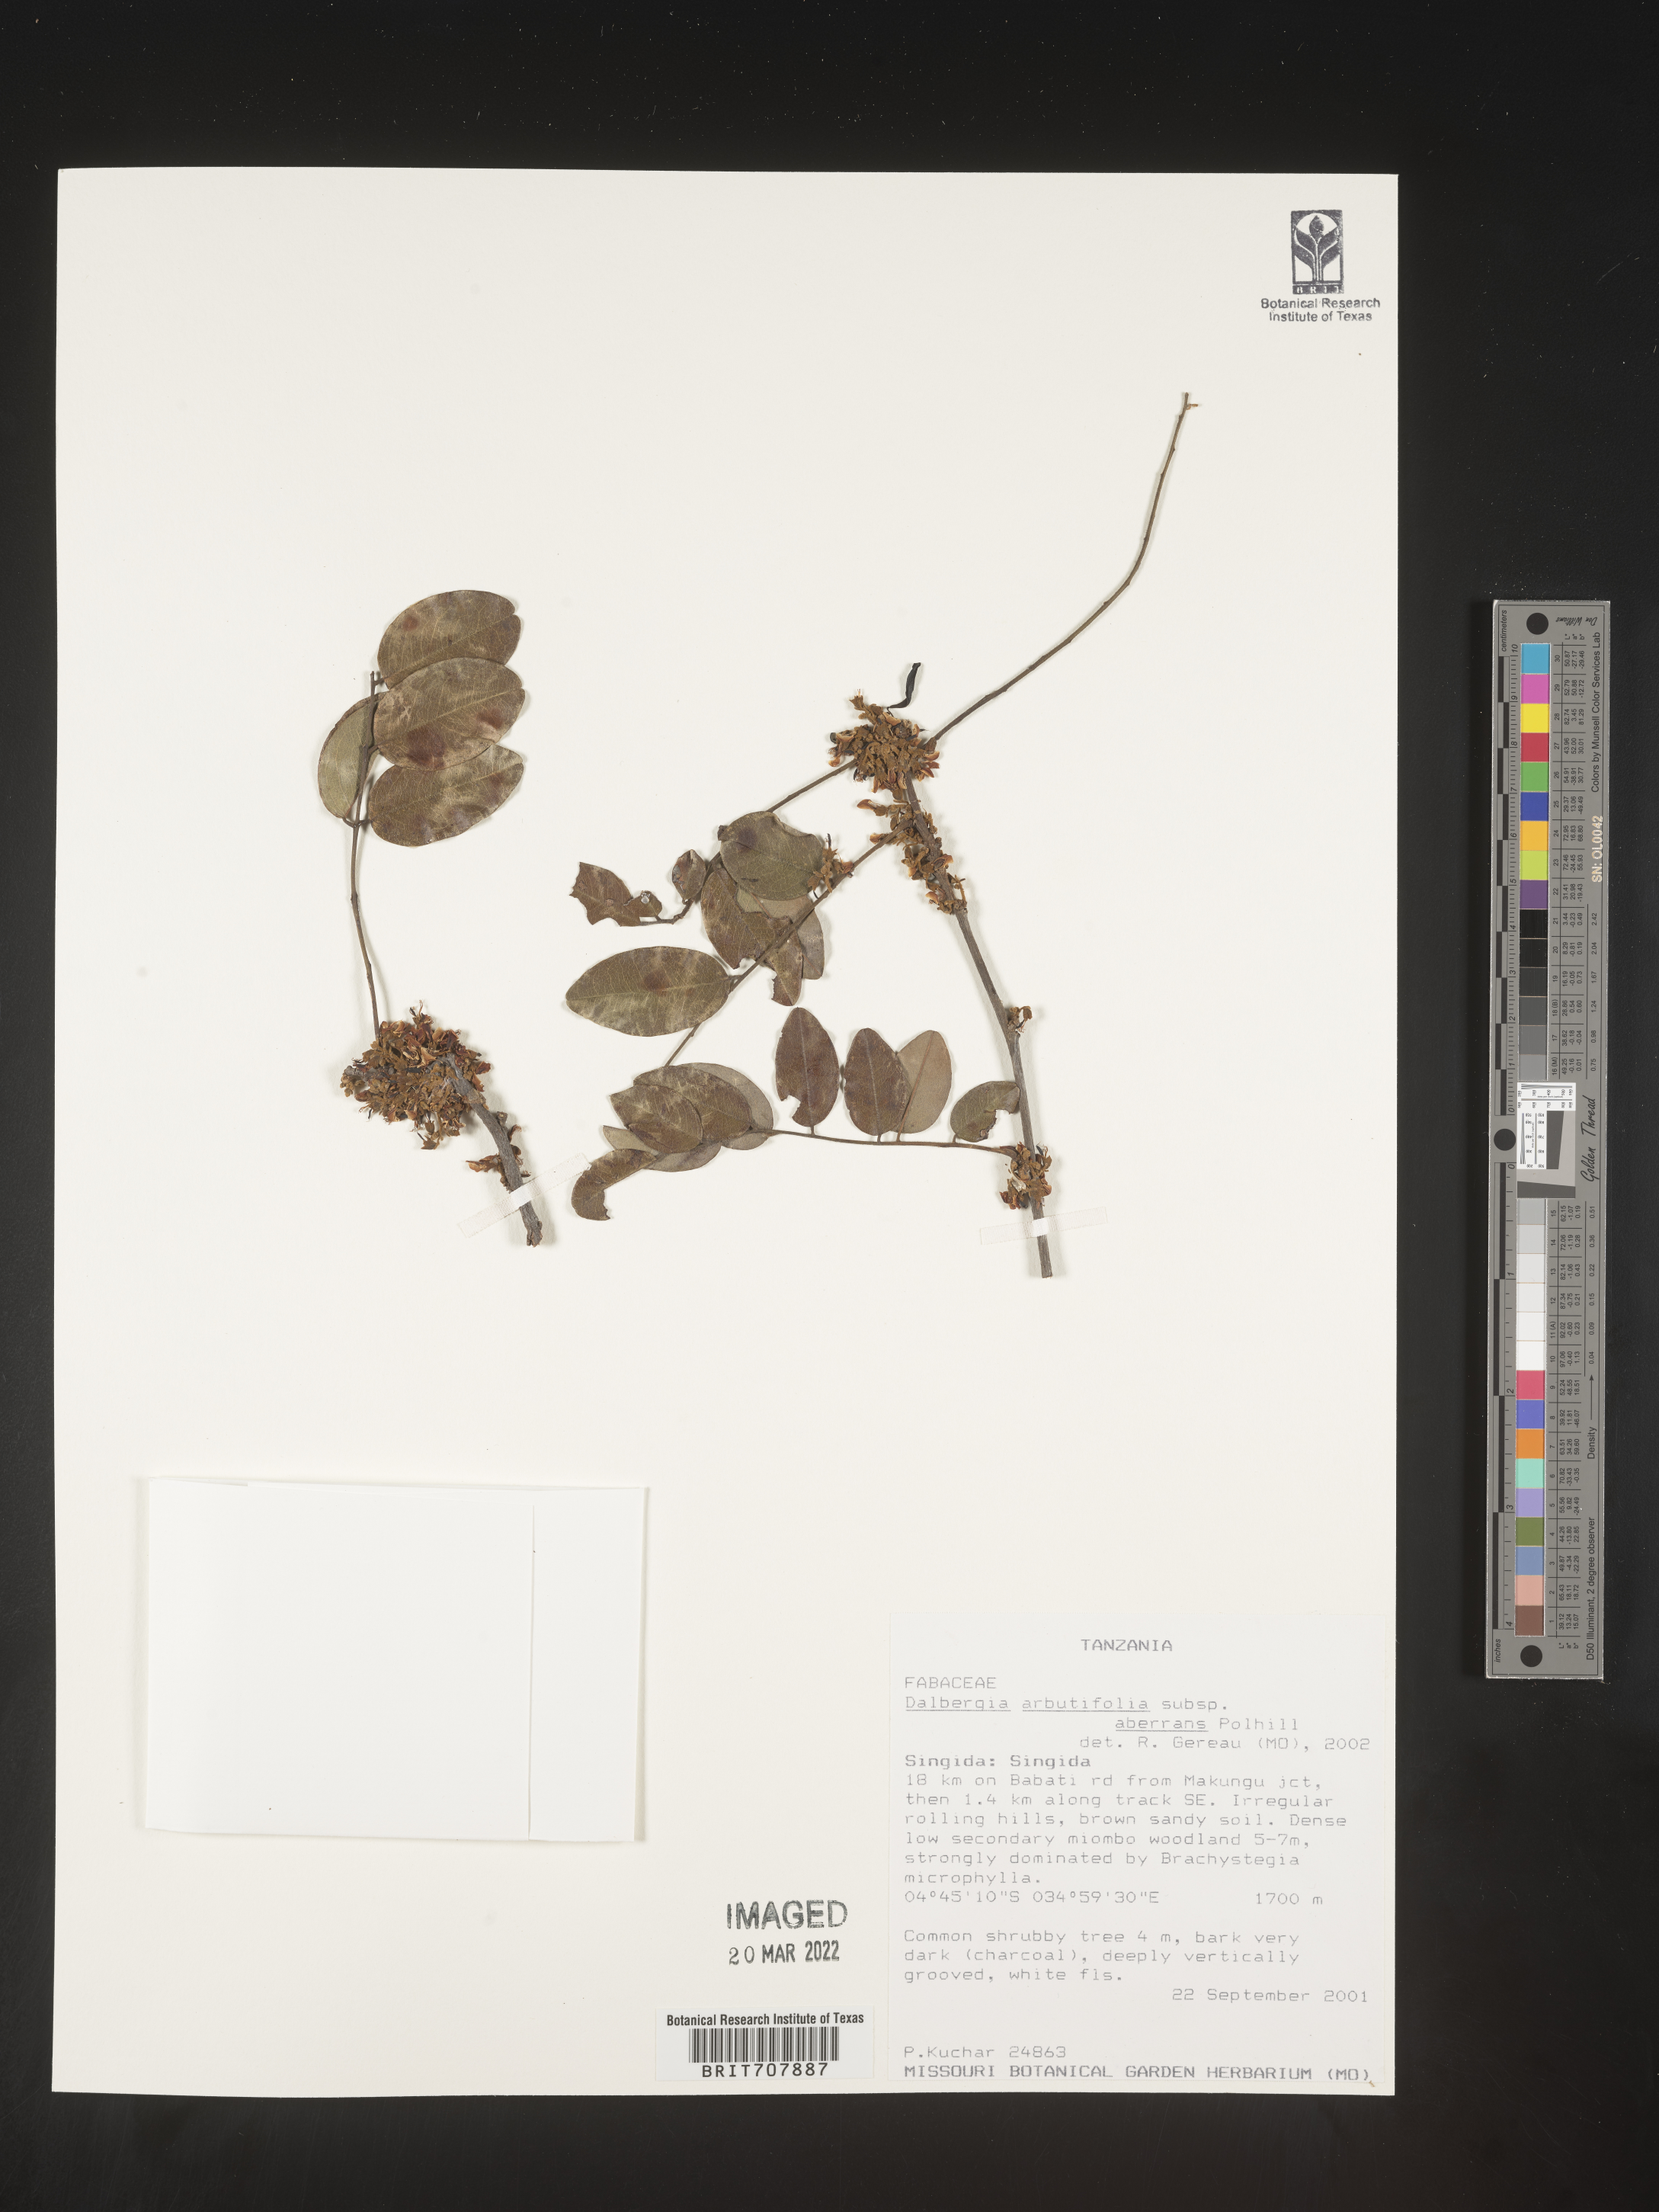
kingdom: Plantae
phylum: Tracheophyta
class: Magnoliopsida
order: Fabales
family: Fabaceae
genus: Dalbergia
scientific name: Dalbergia
